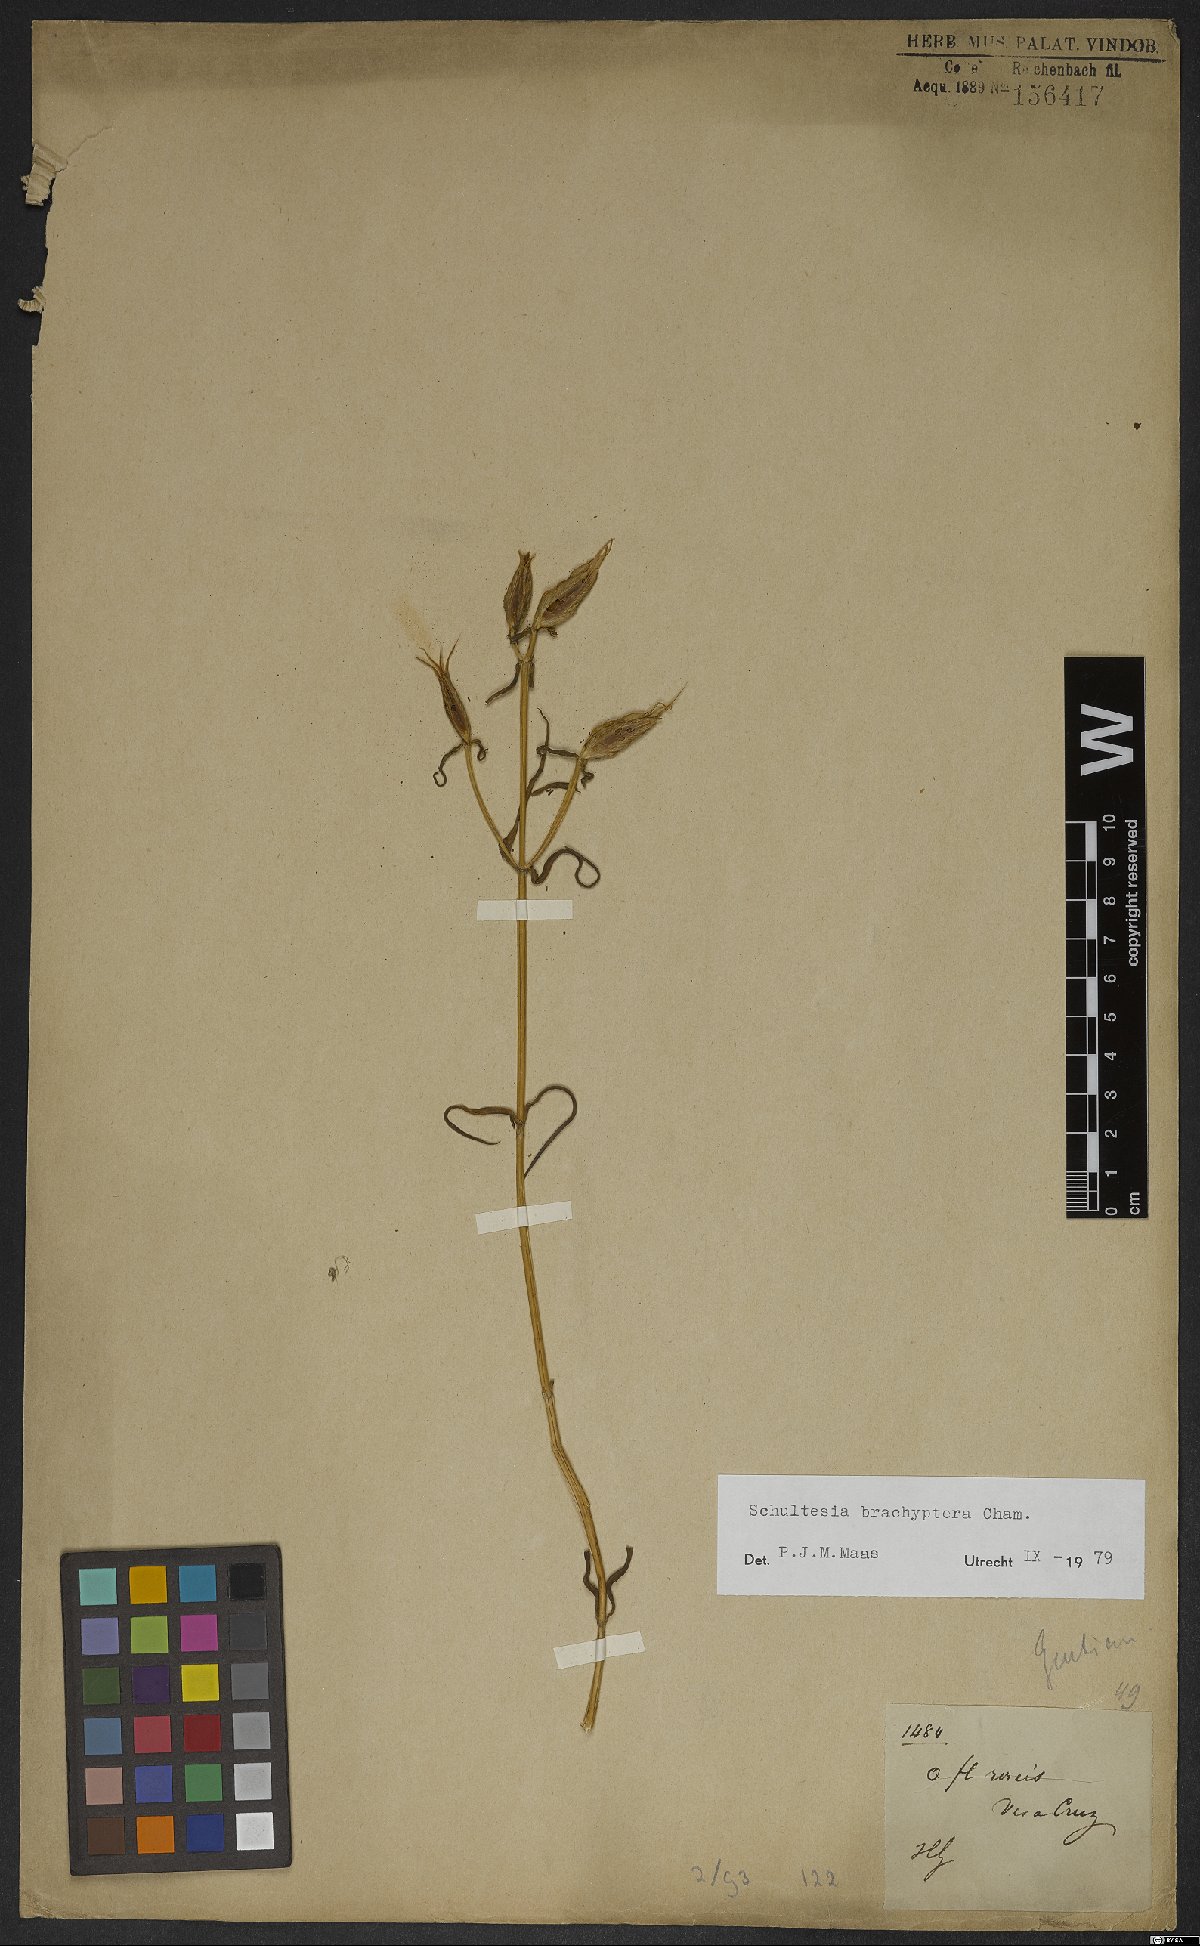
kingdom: Plantae
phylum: Tracheophyta
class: Magnoliopsida
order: Gentianales
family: Gentianaceae
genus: Schultesia
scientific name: Schultesia brachyptera
